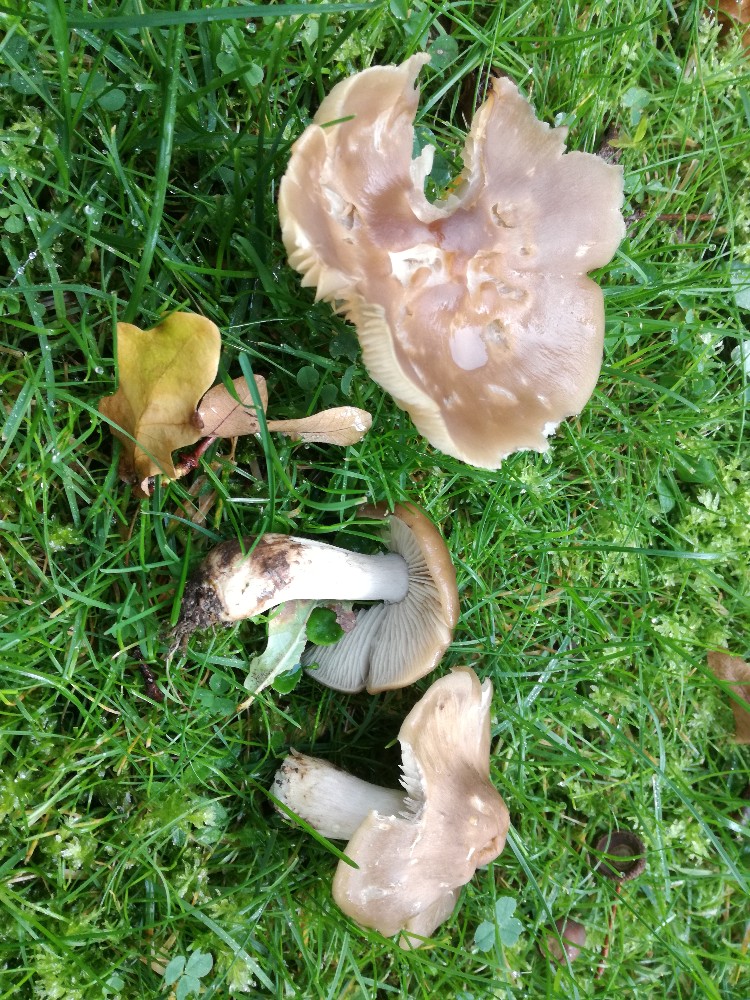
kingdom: Fungi
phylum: Basidiomycota
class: Agaricomycetes
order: Agaricales
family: Entolomataceae
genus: Entoloma
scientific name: Entoloma lividoalbum
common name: lysstokket rødblad
